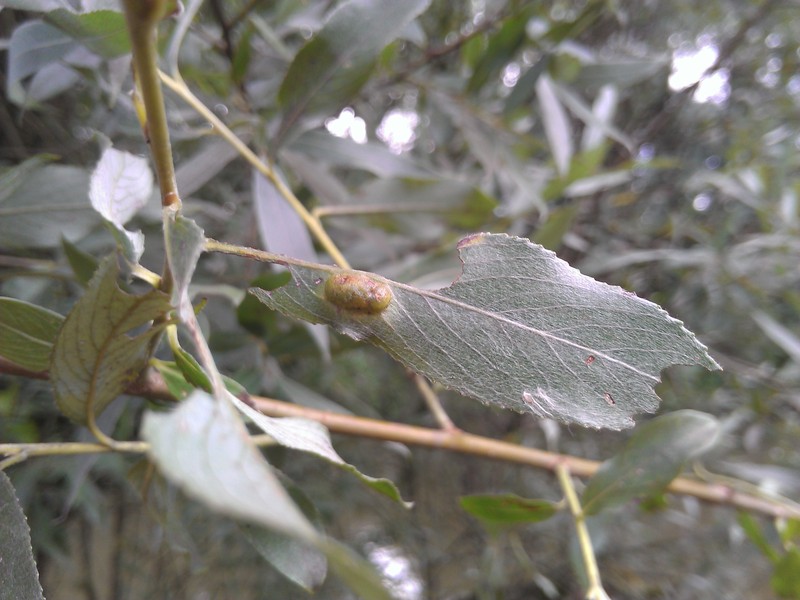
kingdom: Animalia
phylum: Arthropoda
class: Insecta
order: Hymenoptera
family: Tenthredinidae
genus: Pontania
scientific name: Pontania proxima
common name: Common sawfly
